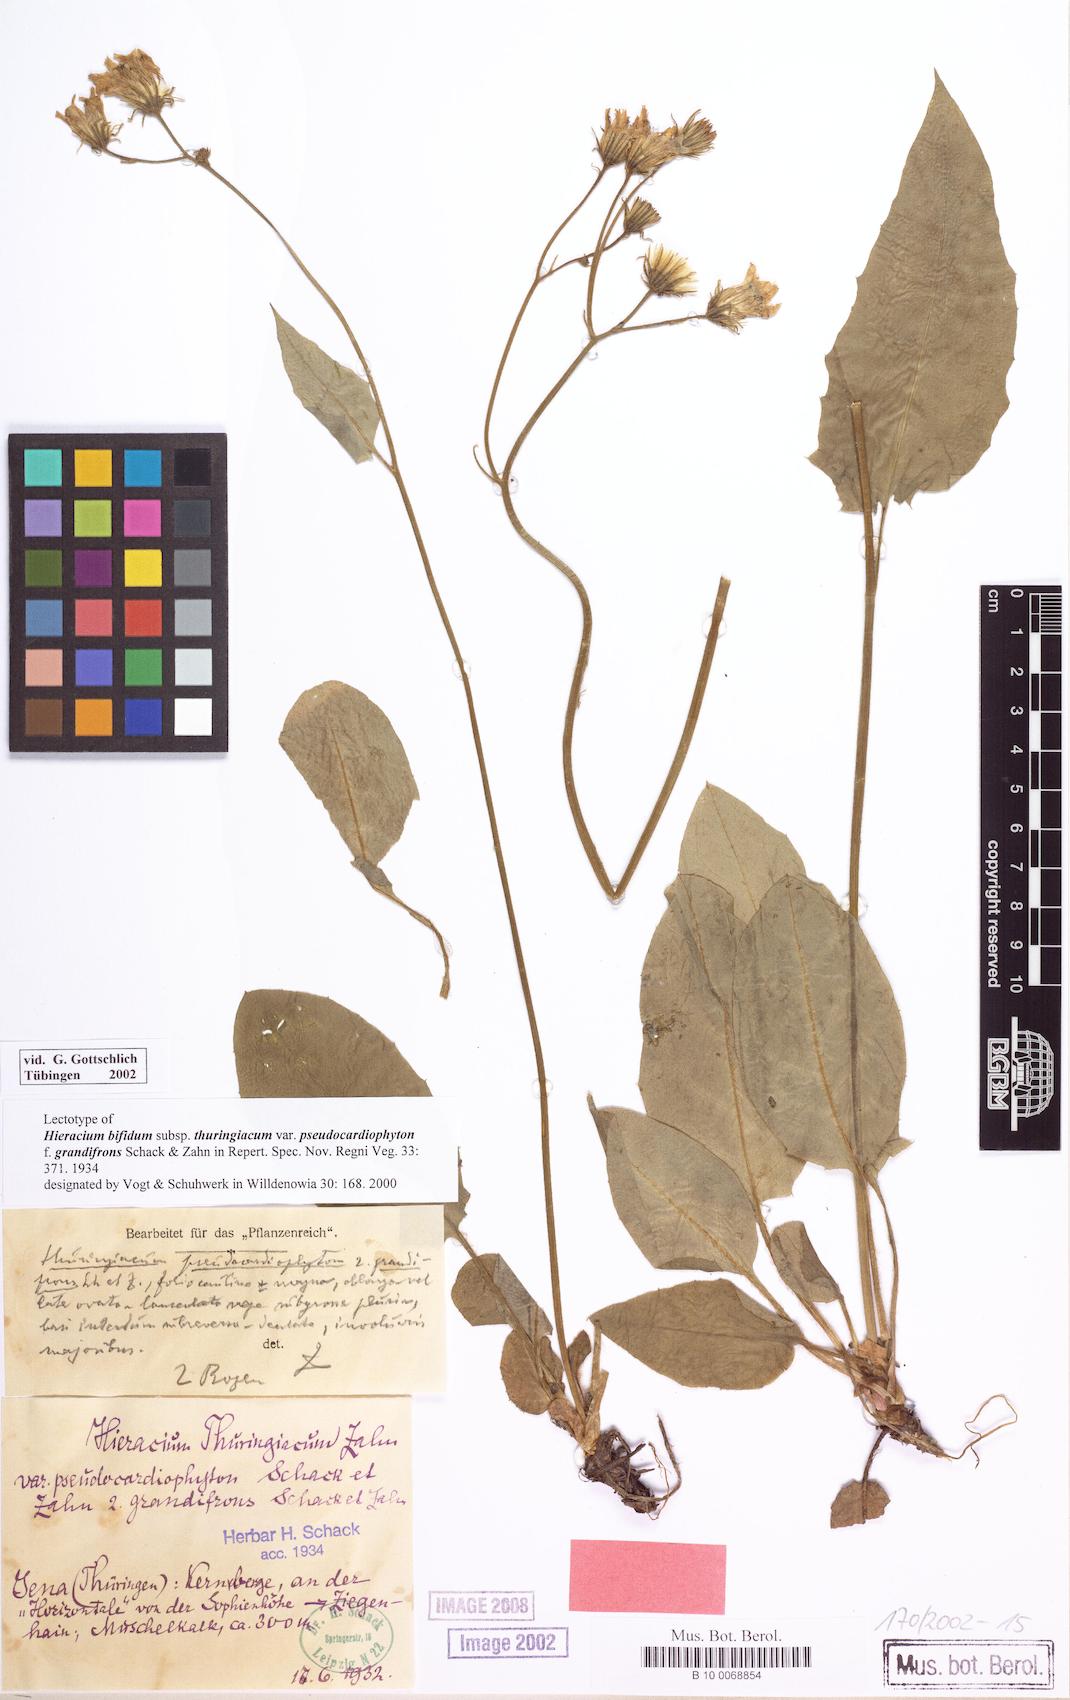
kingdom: Plantae
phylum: Tracheophyta
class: Magnoliopsida
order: Asterales
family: Asteraceae
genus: Hieracium
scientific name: Hieracium bifidum
